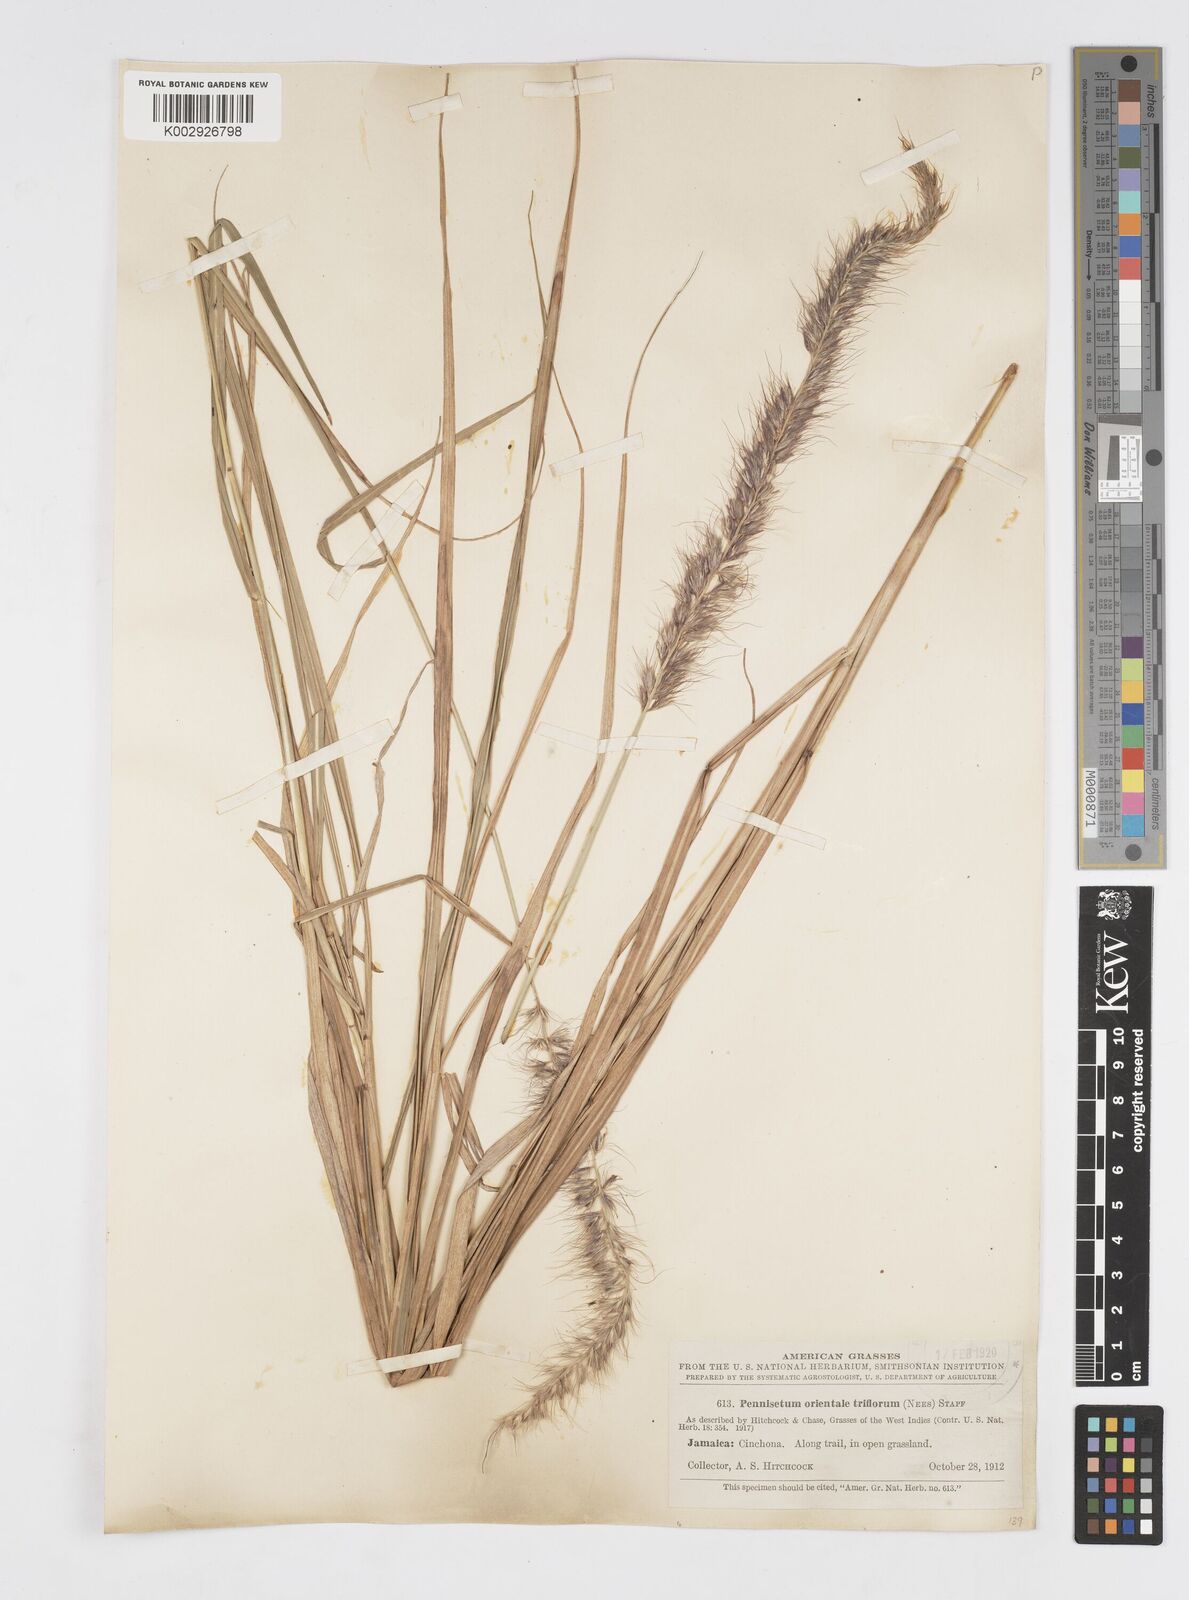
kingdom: Plantae
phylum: Tracheophyta
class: Liliopsida
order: Poales
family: Poaceae
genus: Cenchrus
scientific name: Cenchrus Pennisetum spec
